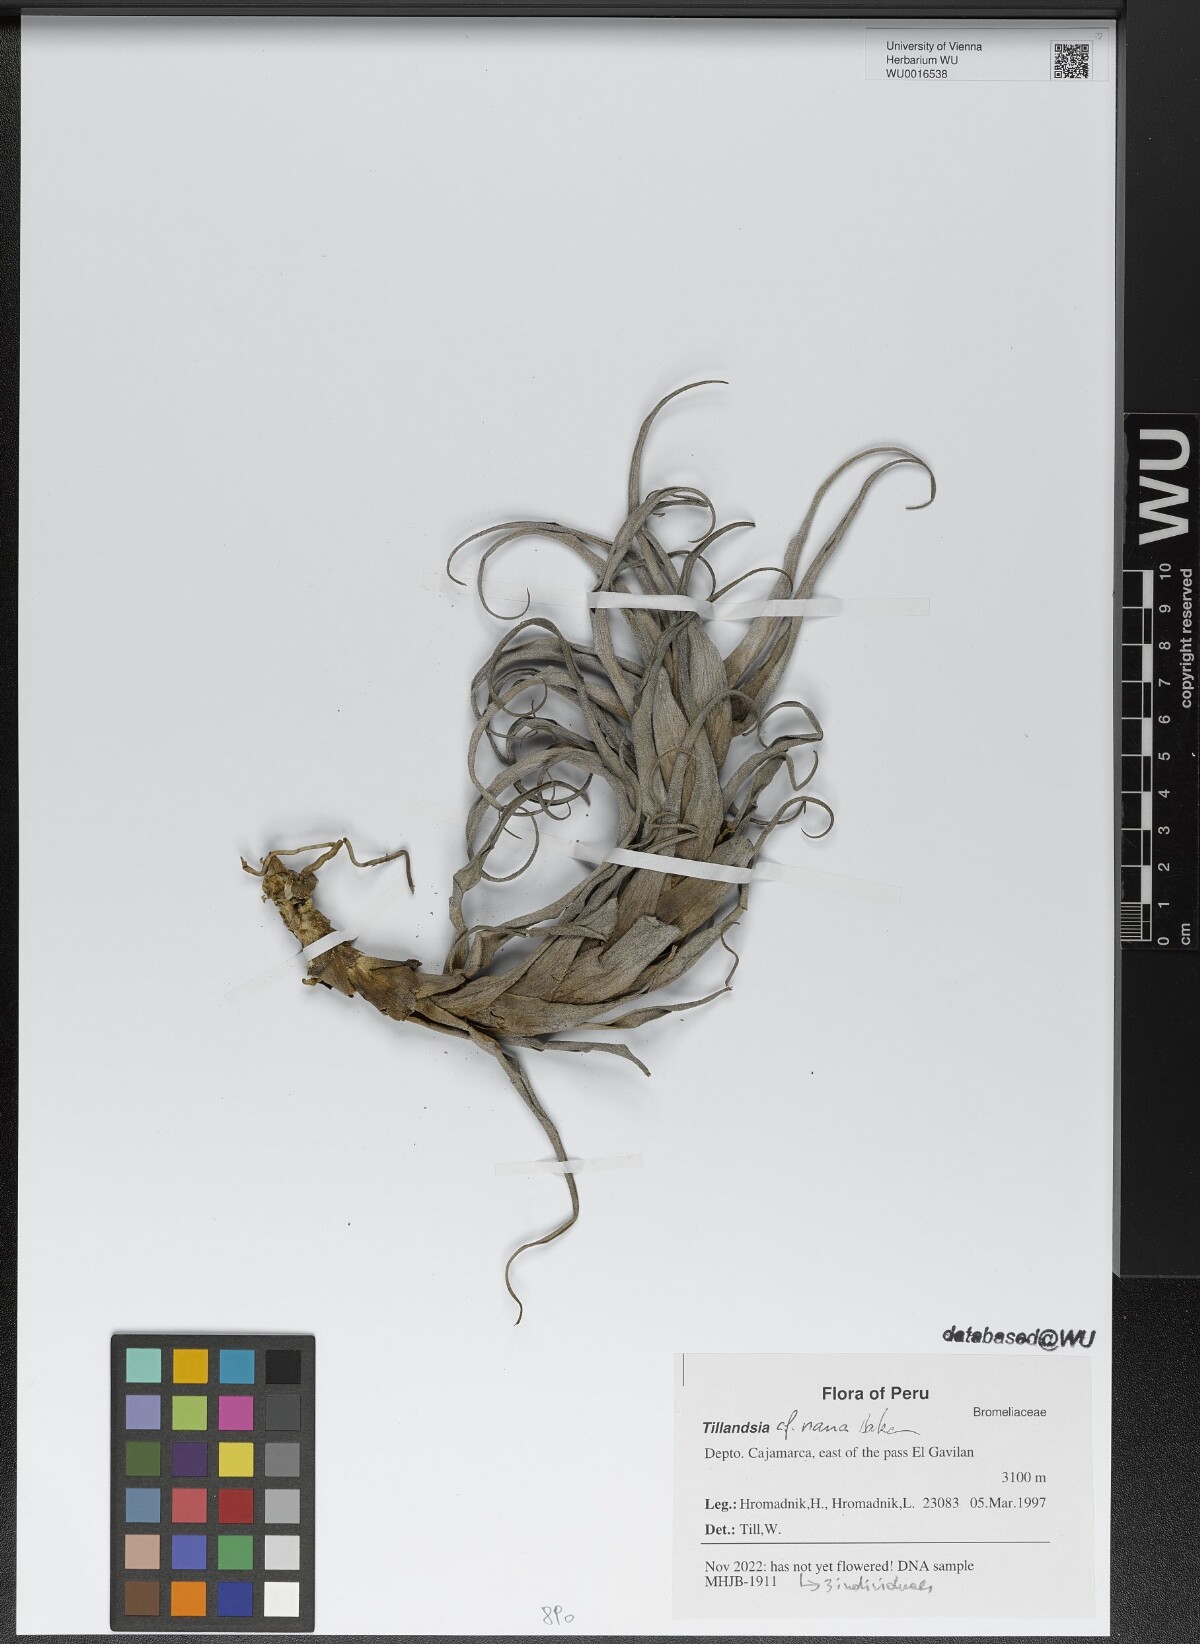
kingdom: Plantae
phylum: Tracheophyta
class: Liliopsida
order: Poales
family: Bromeliaceae
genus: Tillandsia
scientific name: Tillandsia nana
